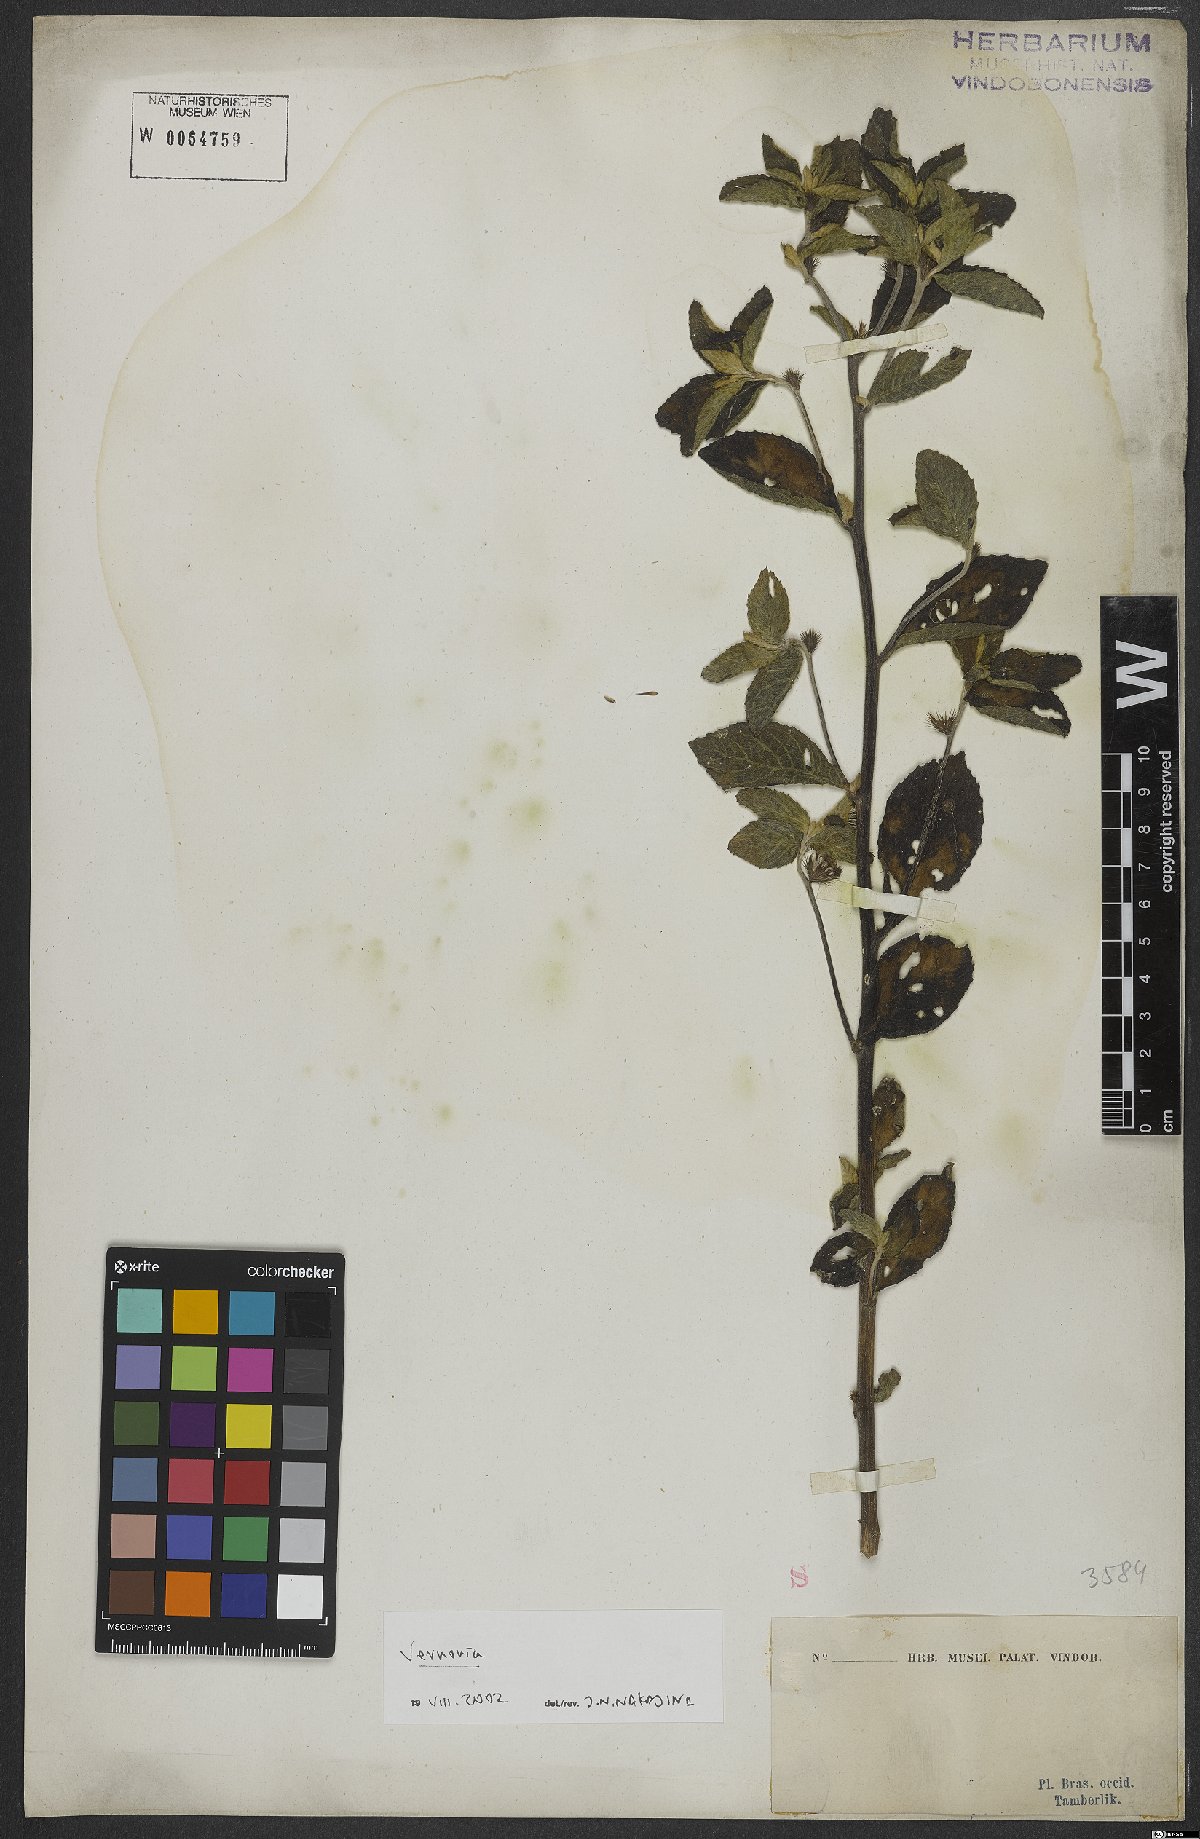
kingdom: Plantae
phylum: Tracheophyta
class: Magnoliopsida
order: Asterales
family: Asteraceae
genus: Vernonia
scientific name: Vernonia
